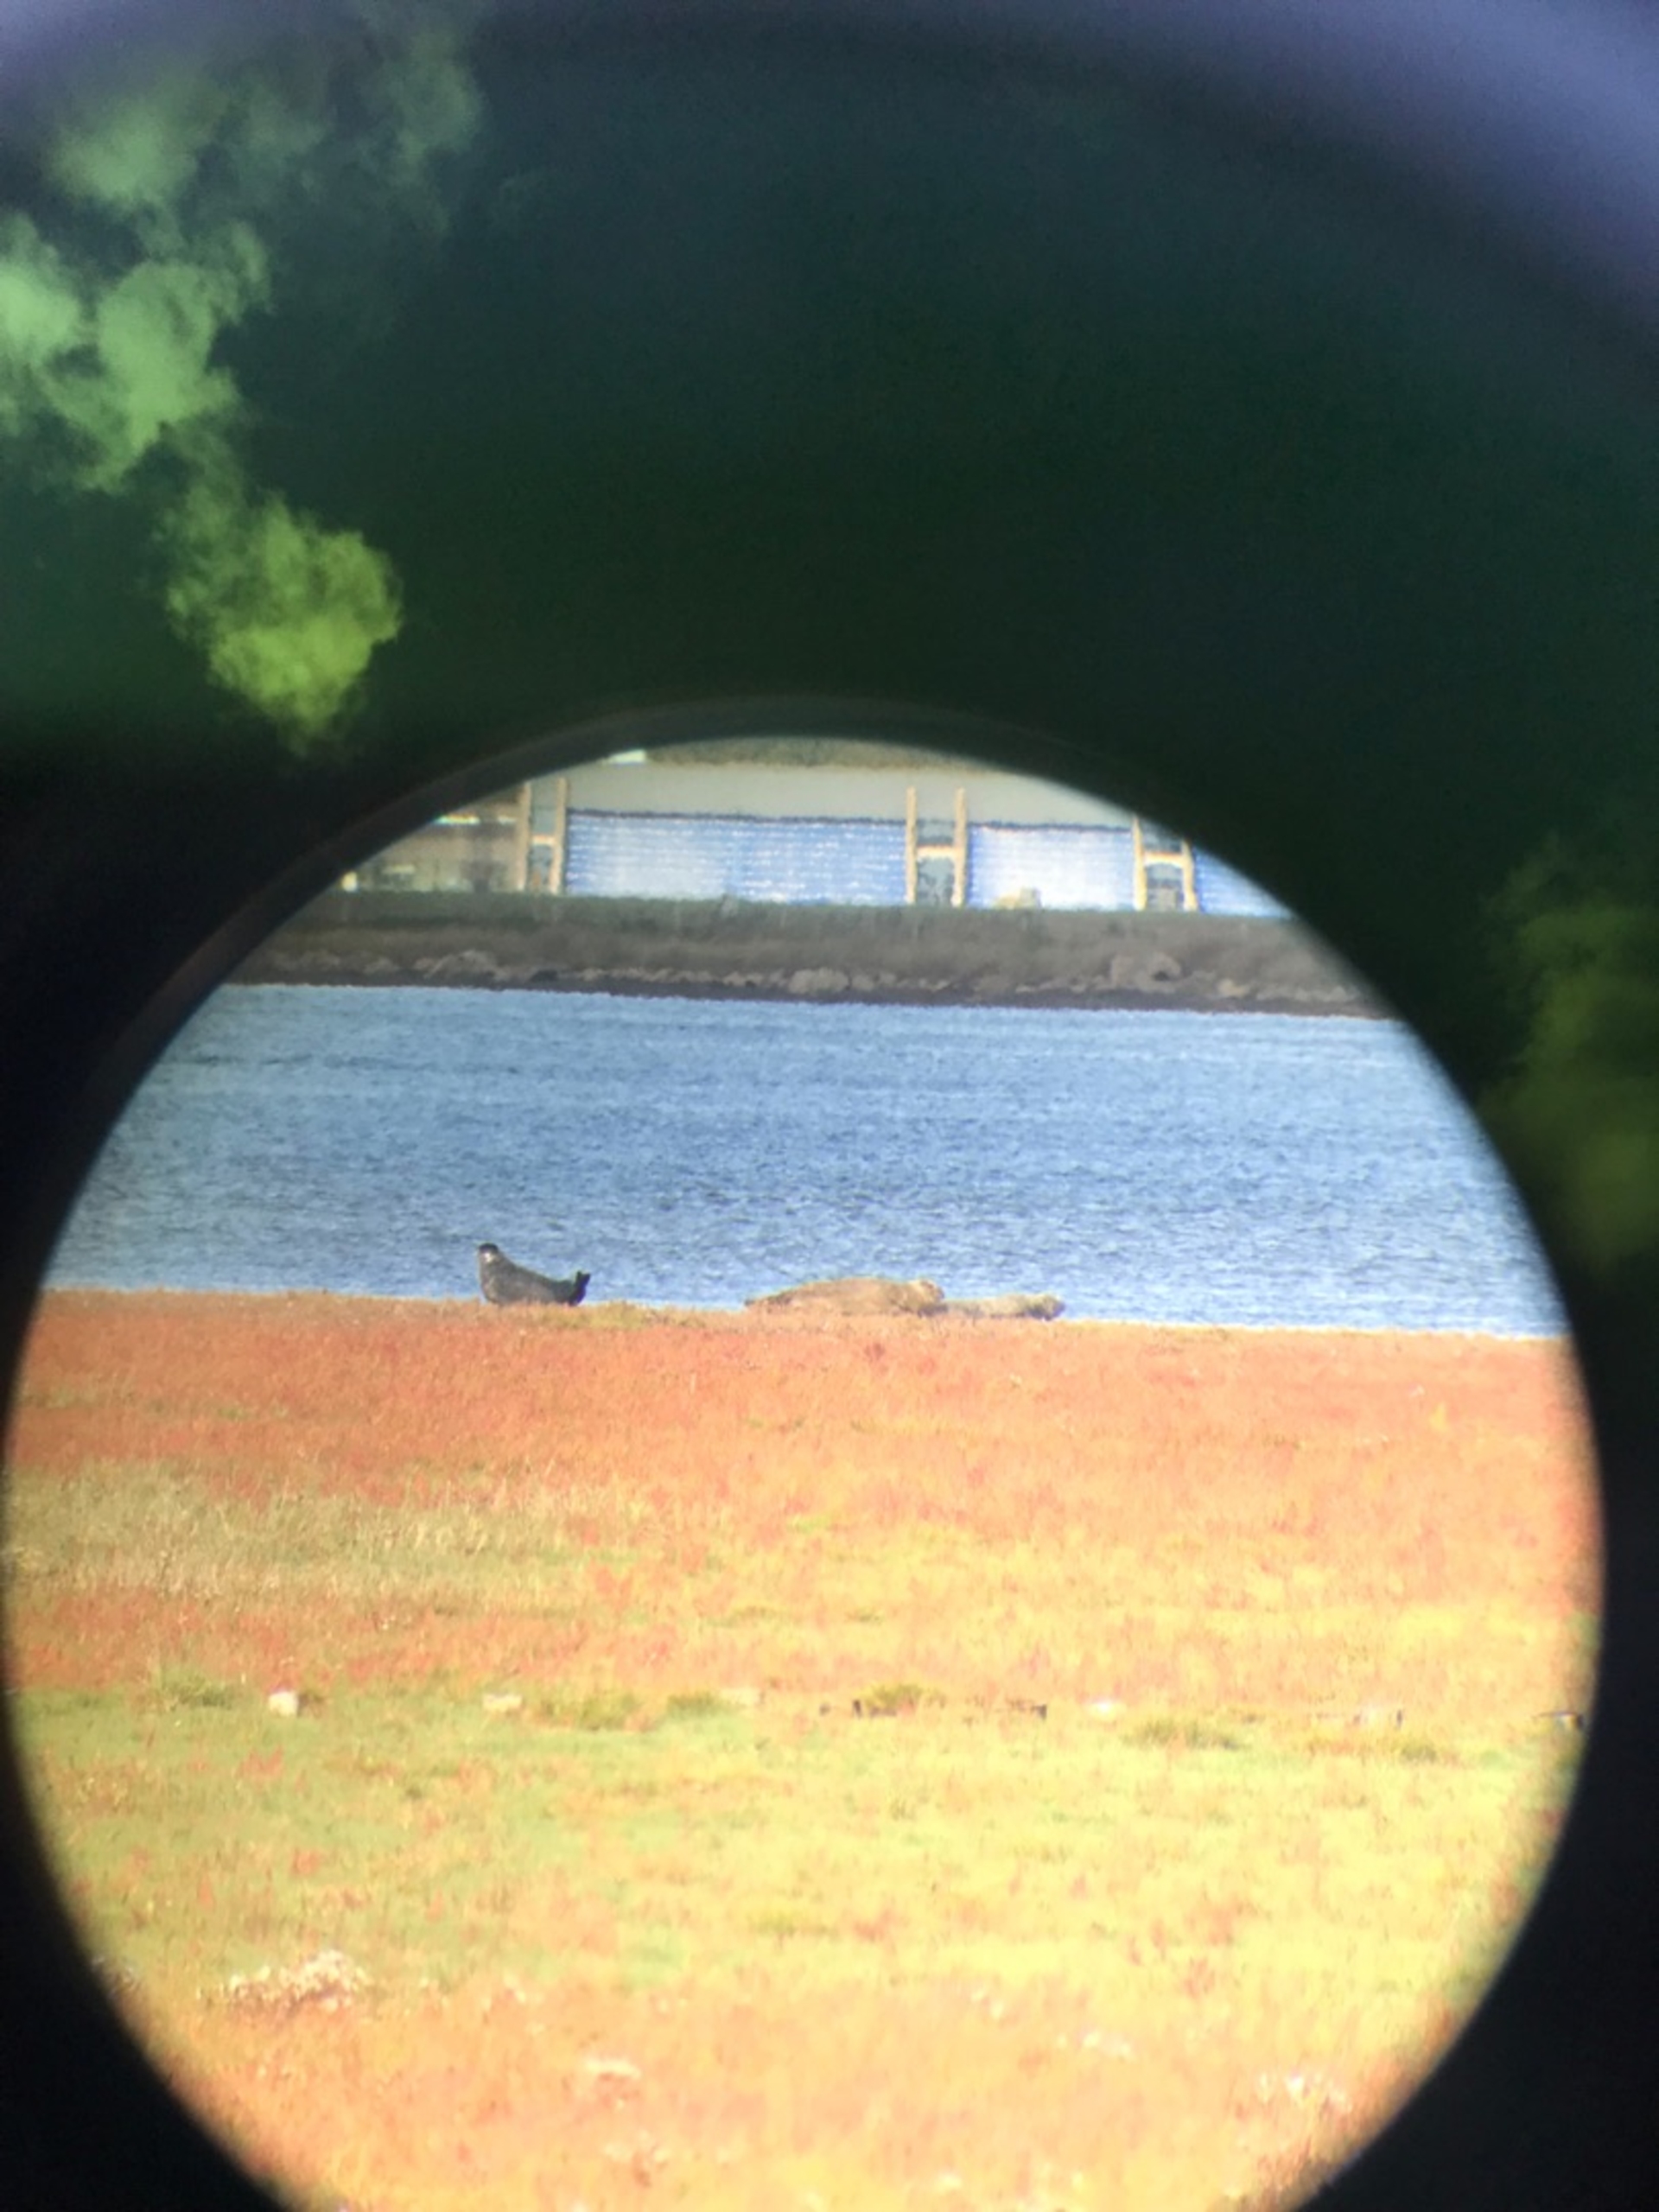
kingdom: Animalia
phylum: Chordata
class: Mammalia
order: Carnivora
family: Phocidae
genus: Phoca
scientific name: Phoca vitulina
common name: Spættet sæl
